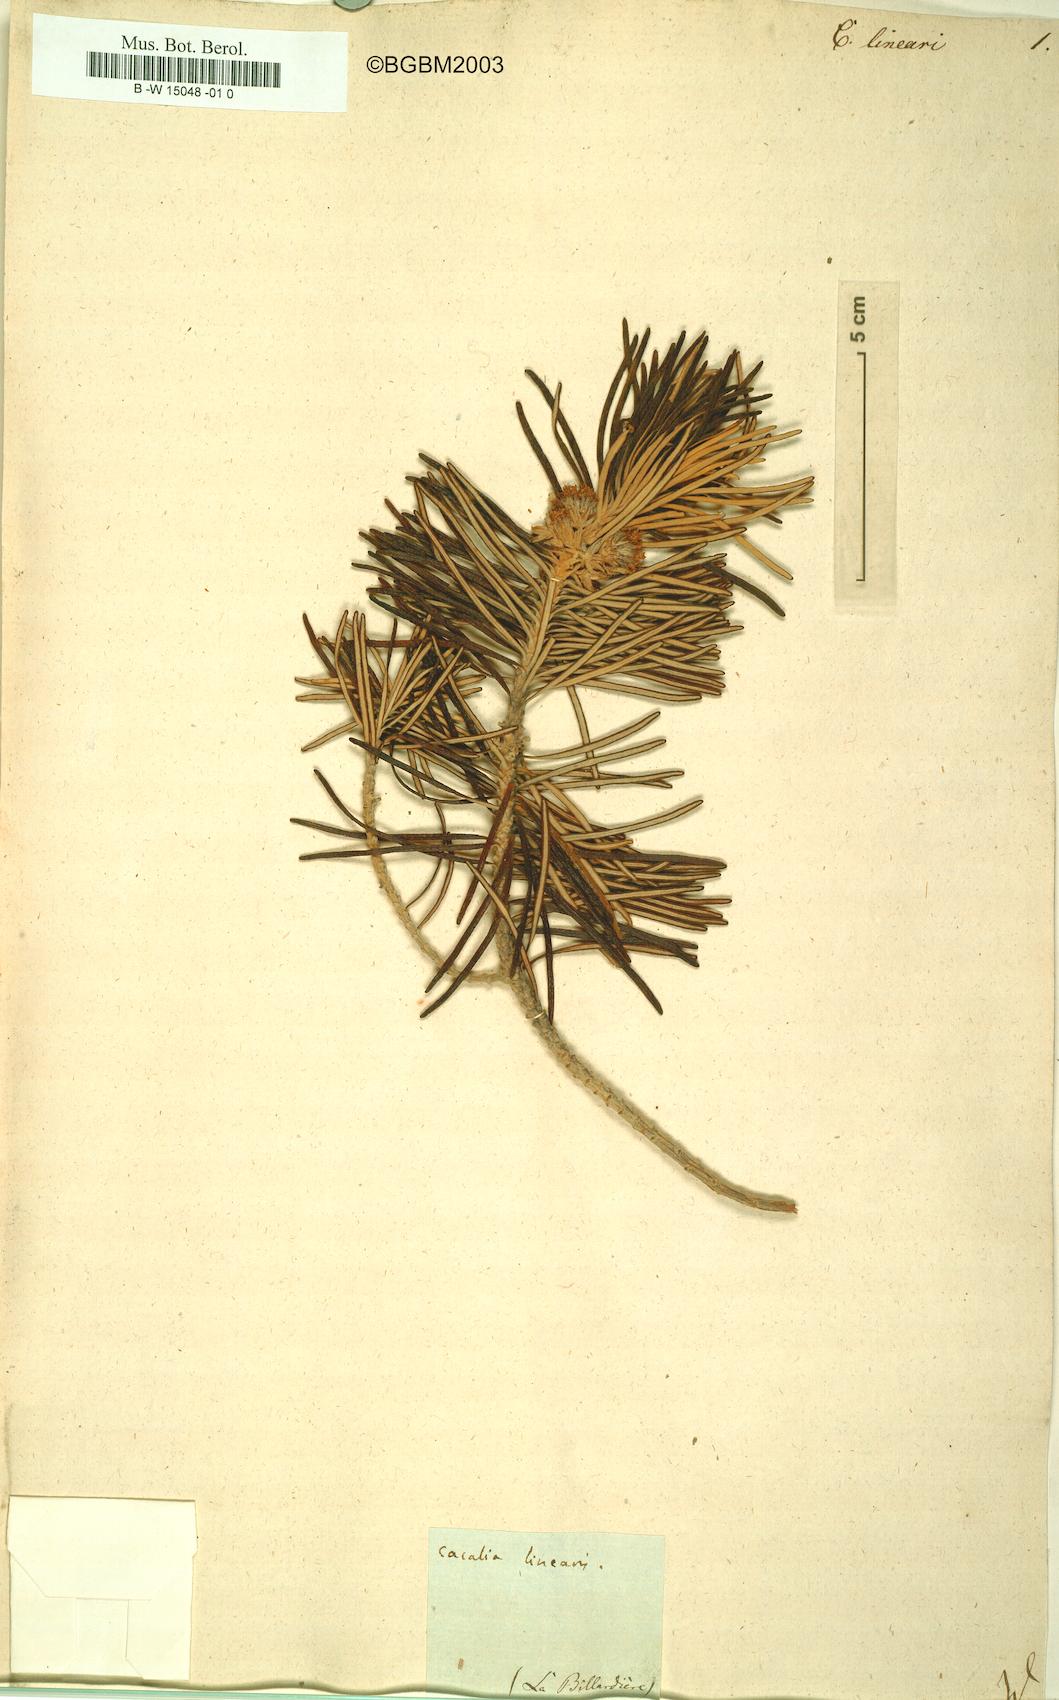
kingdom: Plantae
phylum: Tracheophyta
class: Magnoliopsida
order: Asterales
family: Asteraceae
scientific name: Asteraceae
